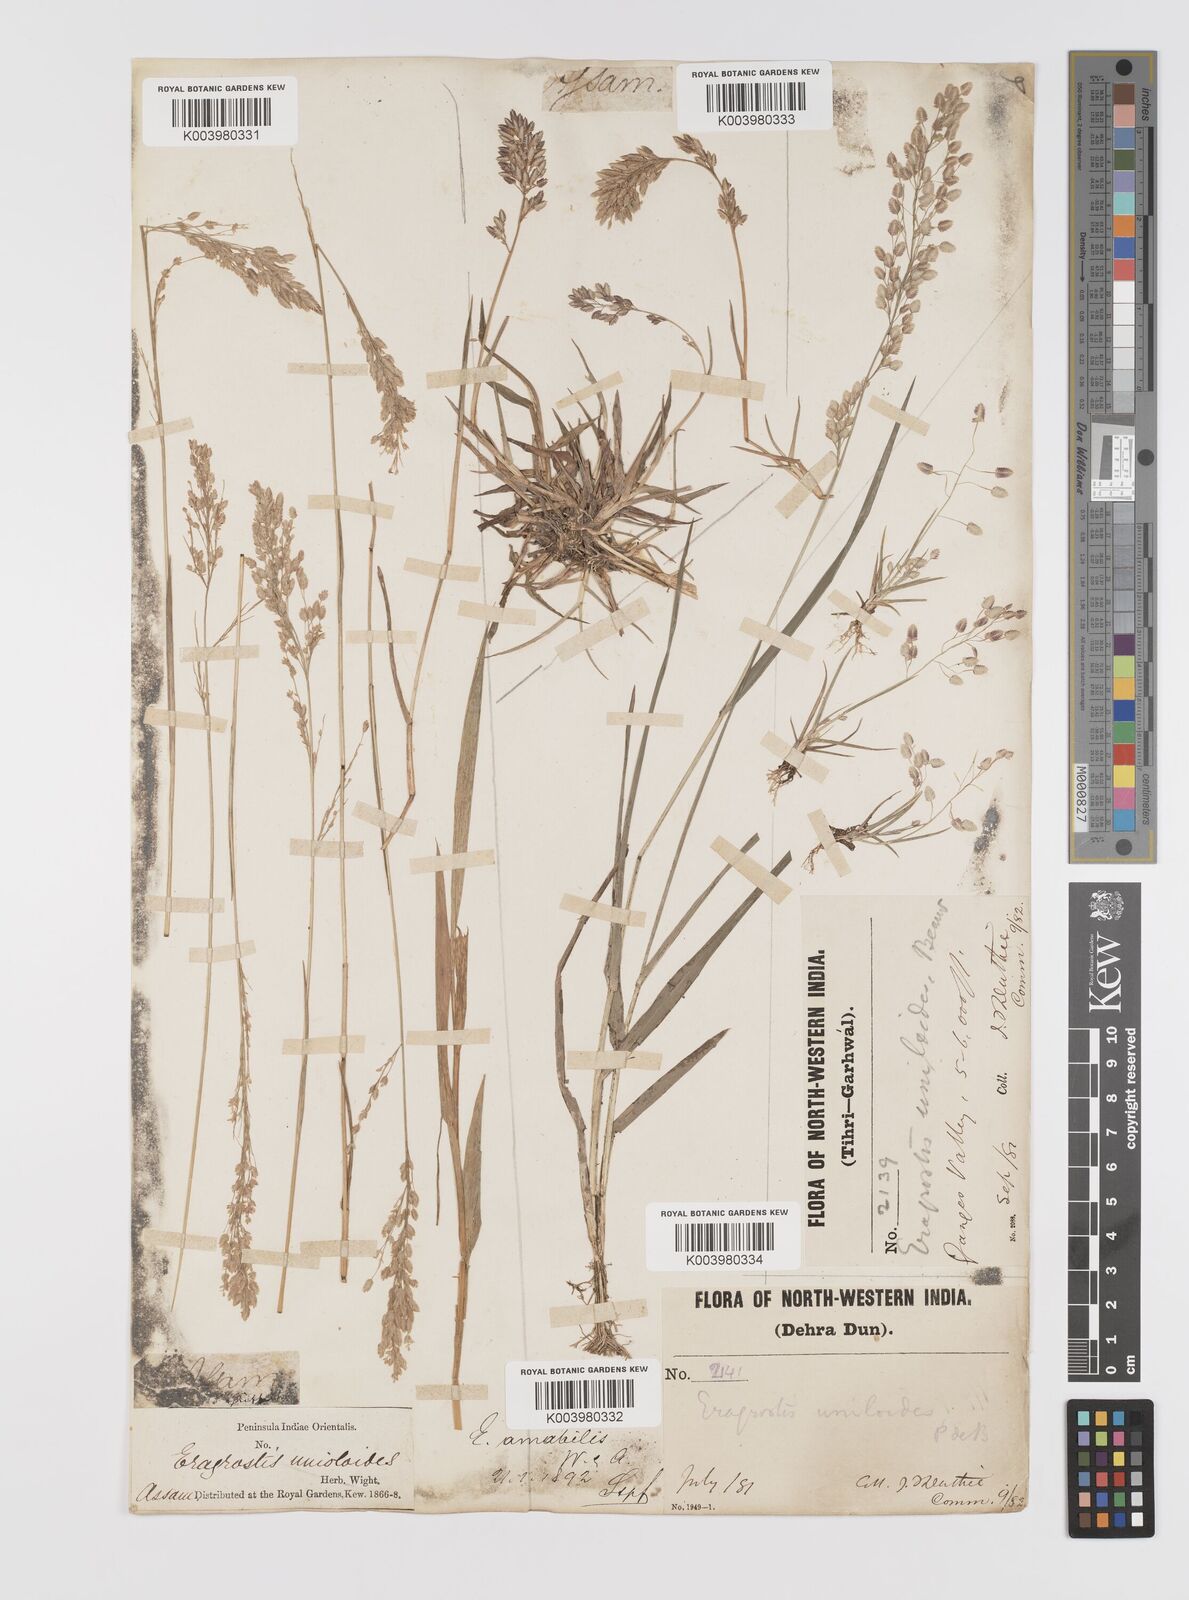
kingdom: Plantae
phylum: Tracheophyta
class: Liliopsida
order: Poales
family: Poaceae
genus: Eragrostis
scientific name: Eragrostis unioloides
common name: Chinese lovegrass
